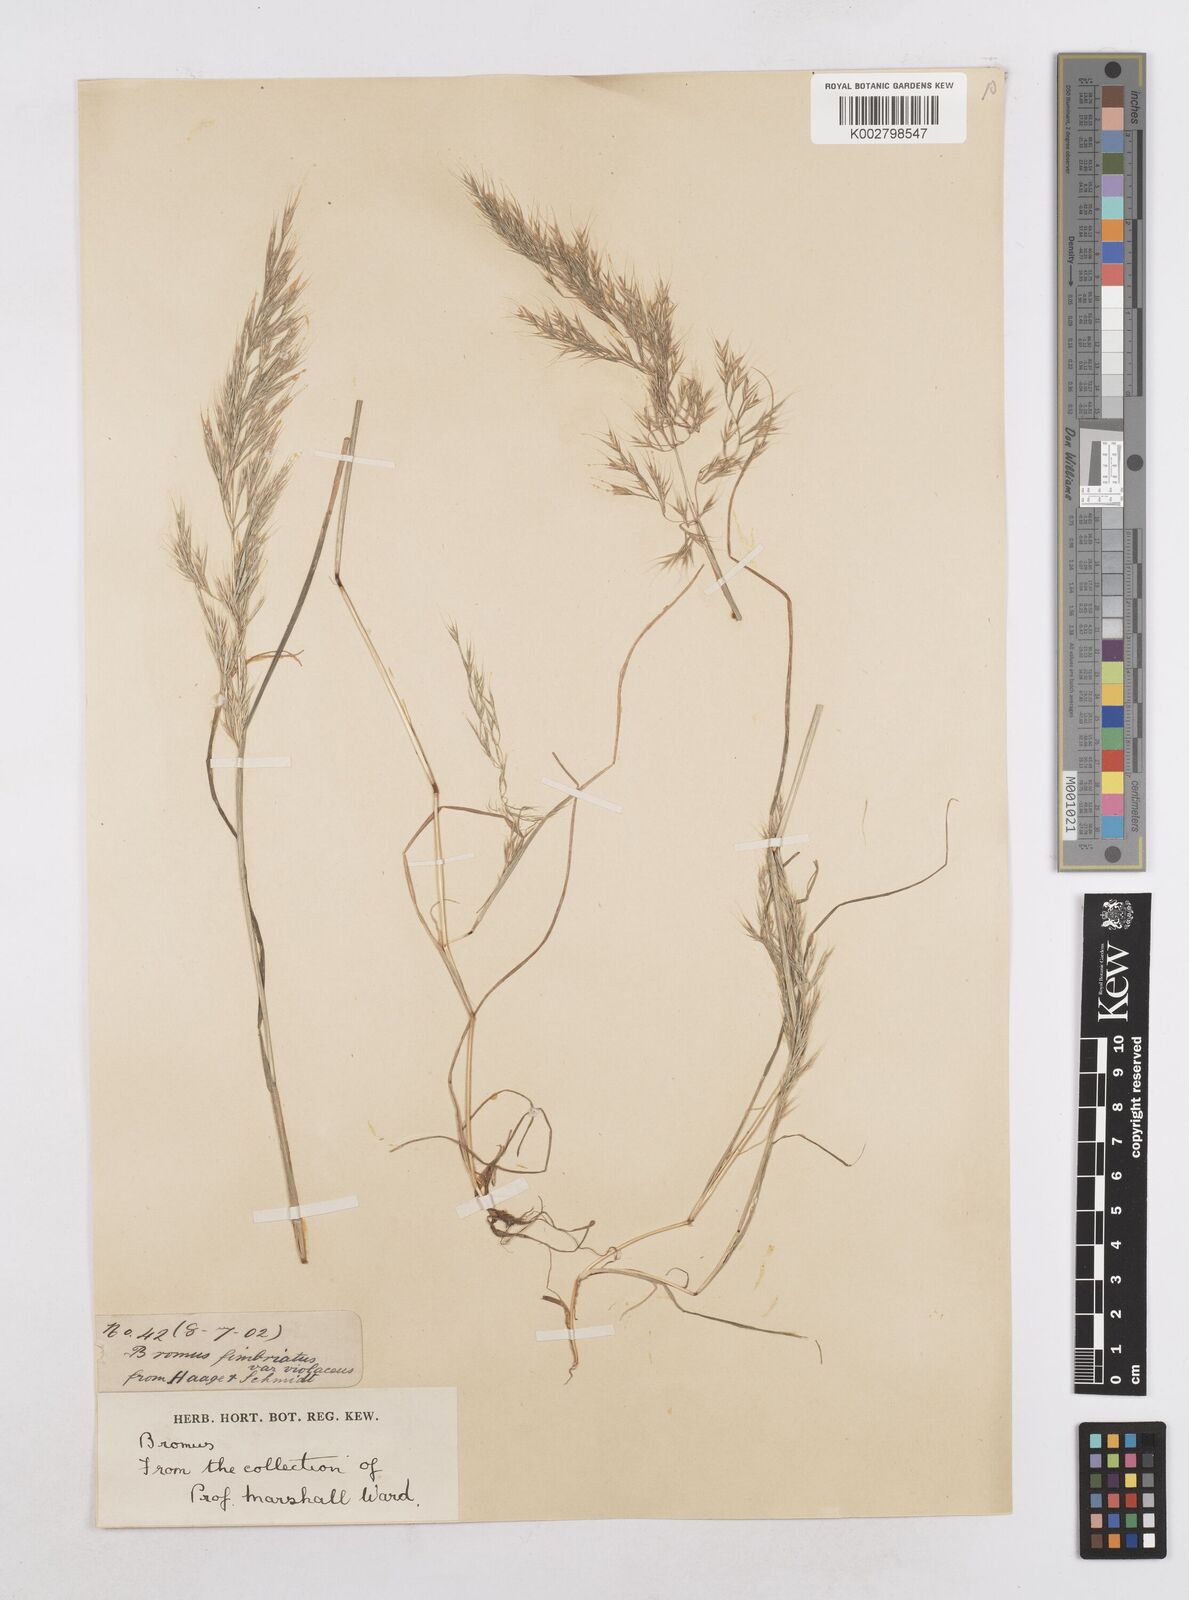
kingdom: Plantae
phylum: Tracheophyta
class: Liliopsida
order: Poales
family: Poaceae
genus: Festuca
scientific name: Festuca geniculata
